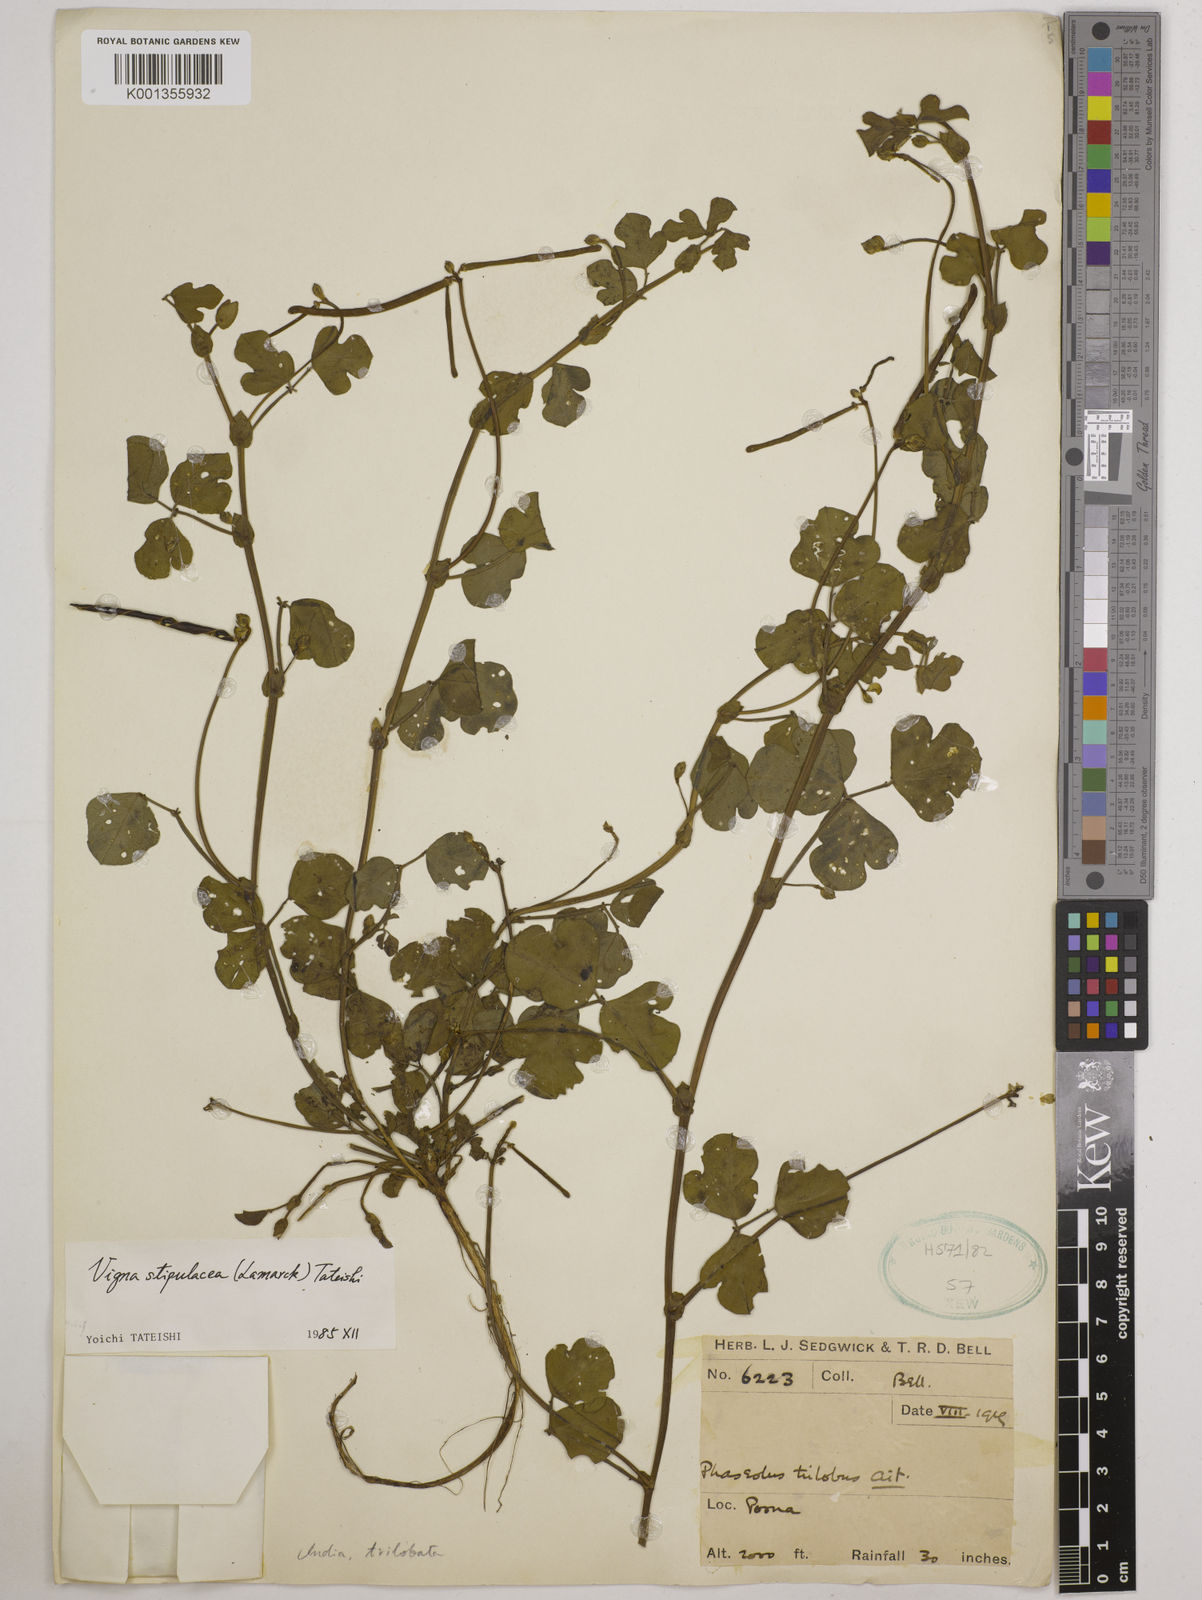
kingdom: Plantae
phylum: Tracheophyta
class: Magnoliopsida
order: Fabales
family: Fabaceae
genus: Pueraria
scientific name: Pueraria montana
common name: Kudzu
